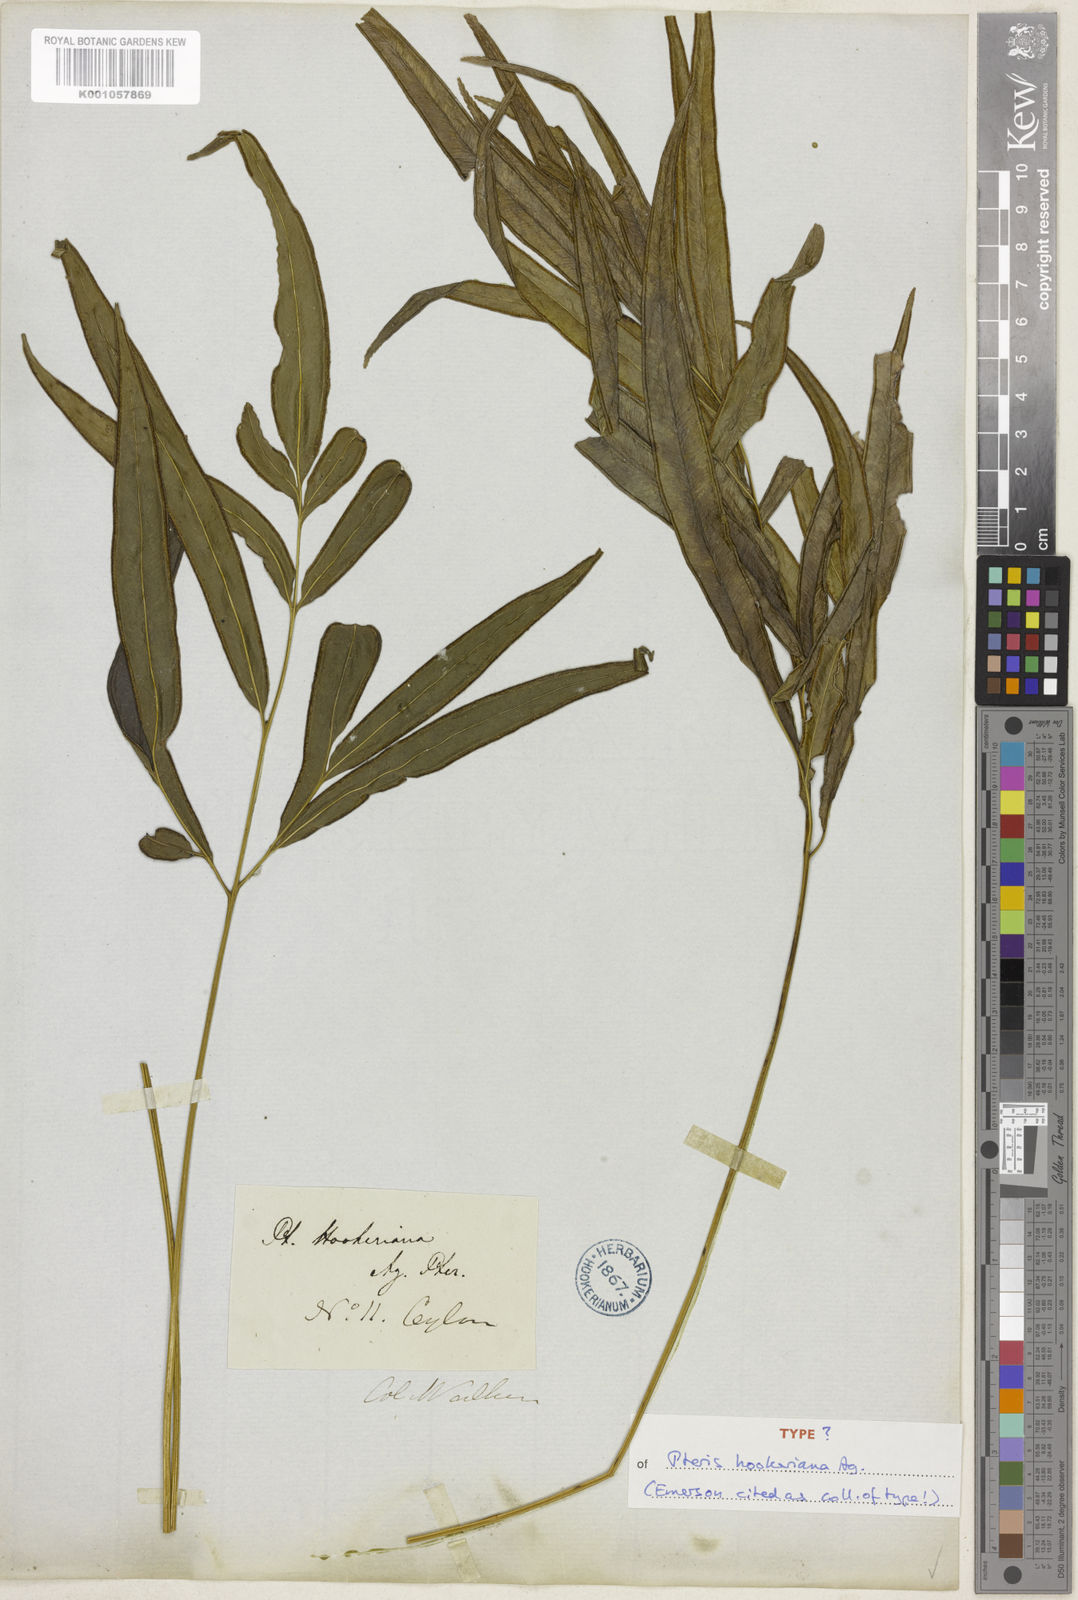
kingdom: Plantae
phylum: Tracheophyta
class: Polypodiopsida
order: Polypodiales
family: Pteridaceae
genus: Pteris
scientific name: Pteris hookeriana
